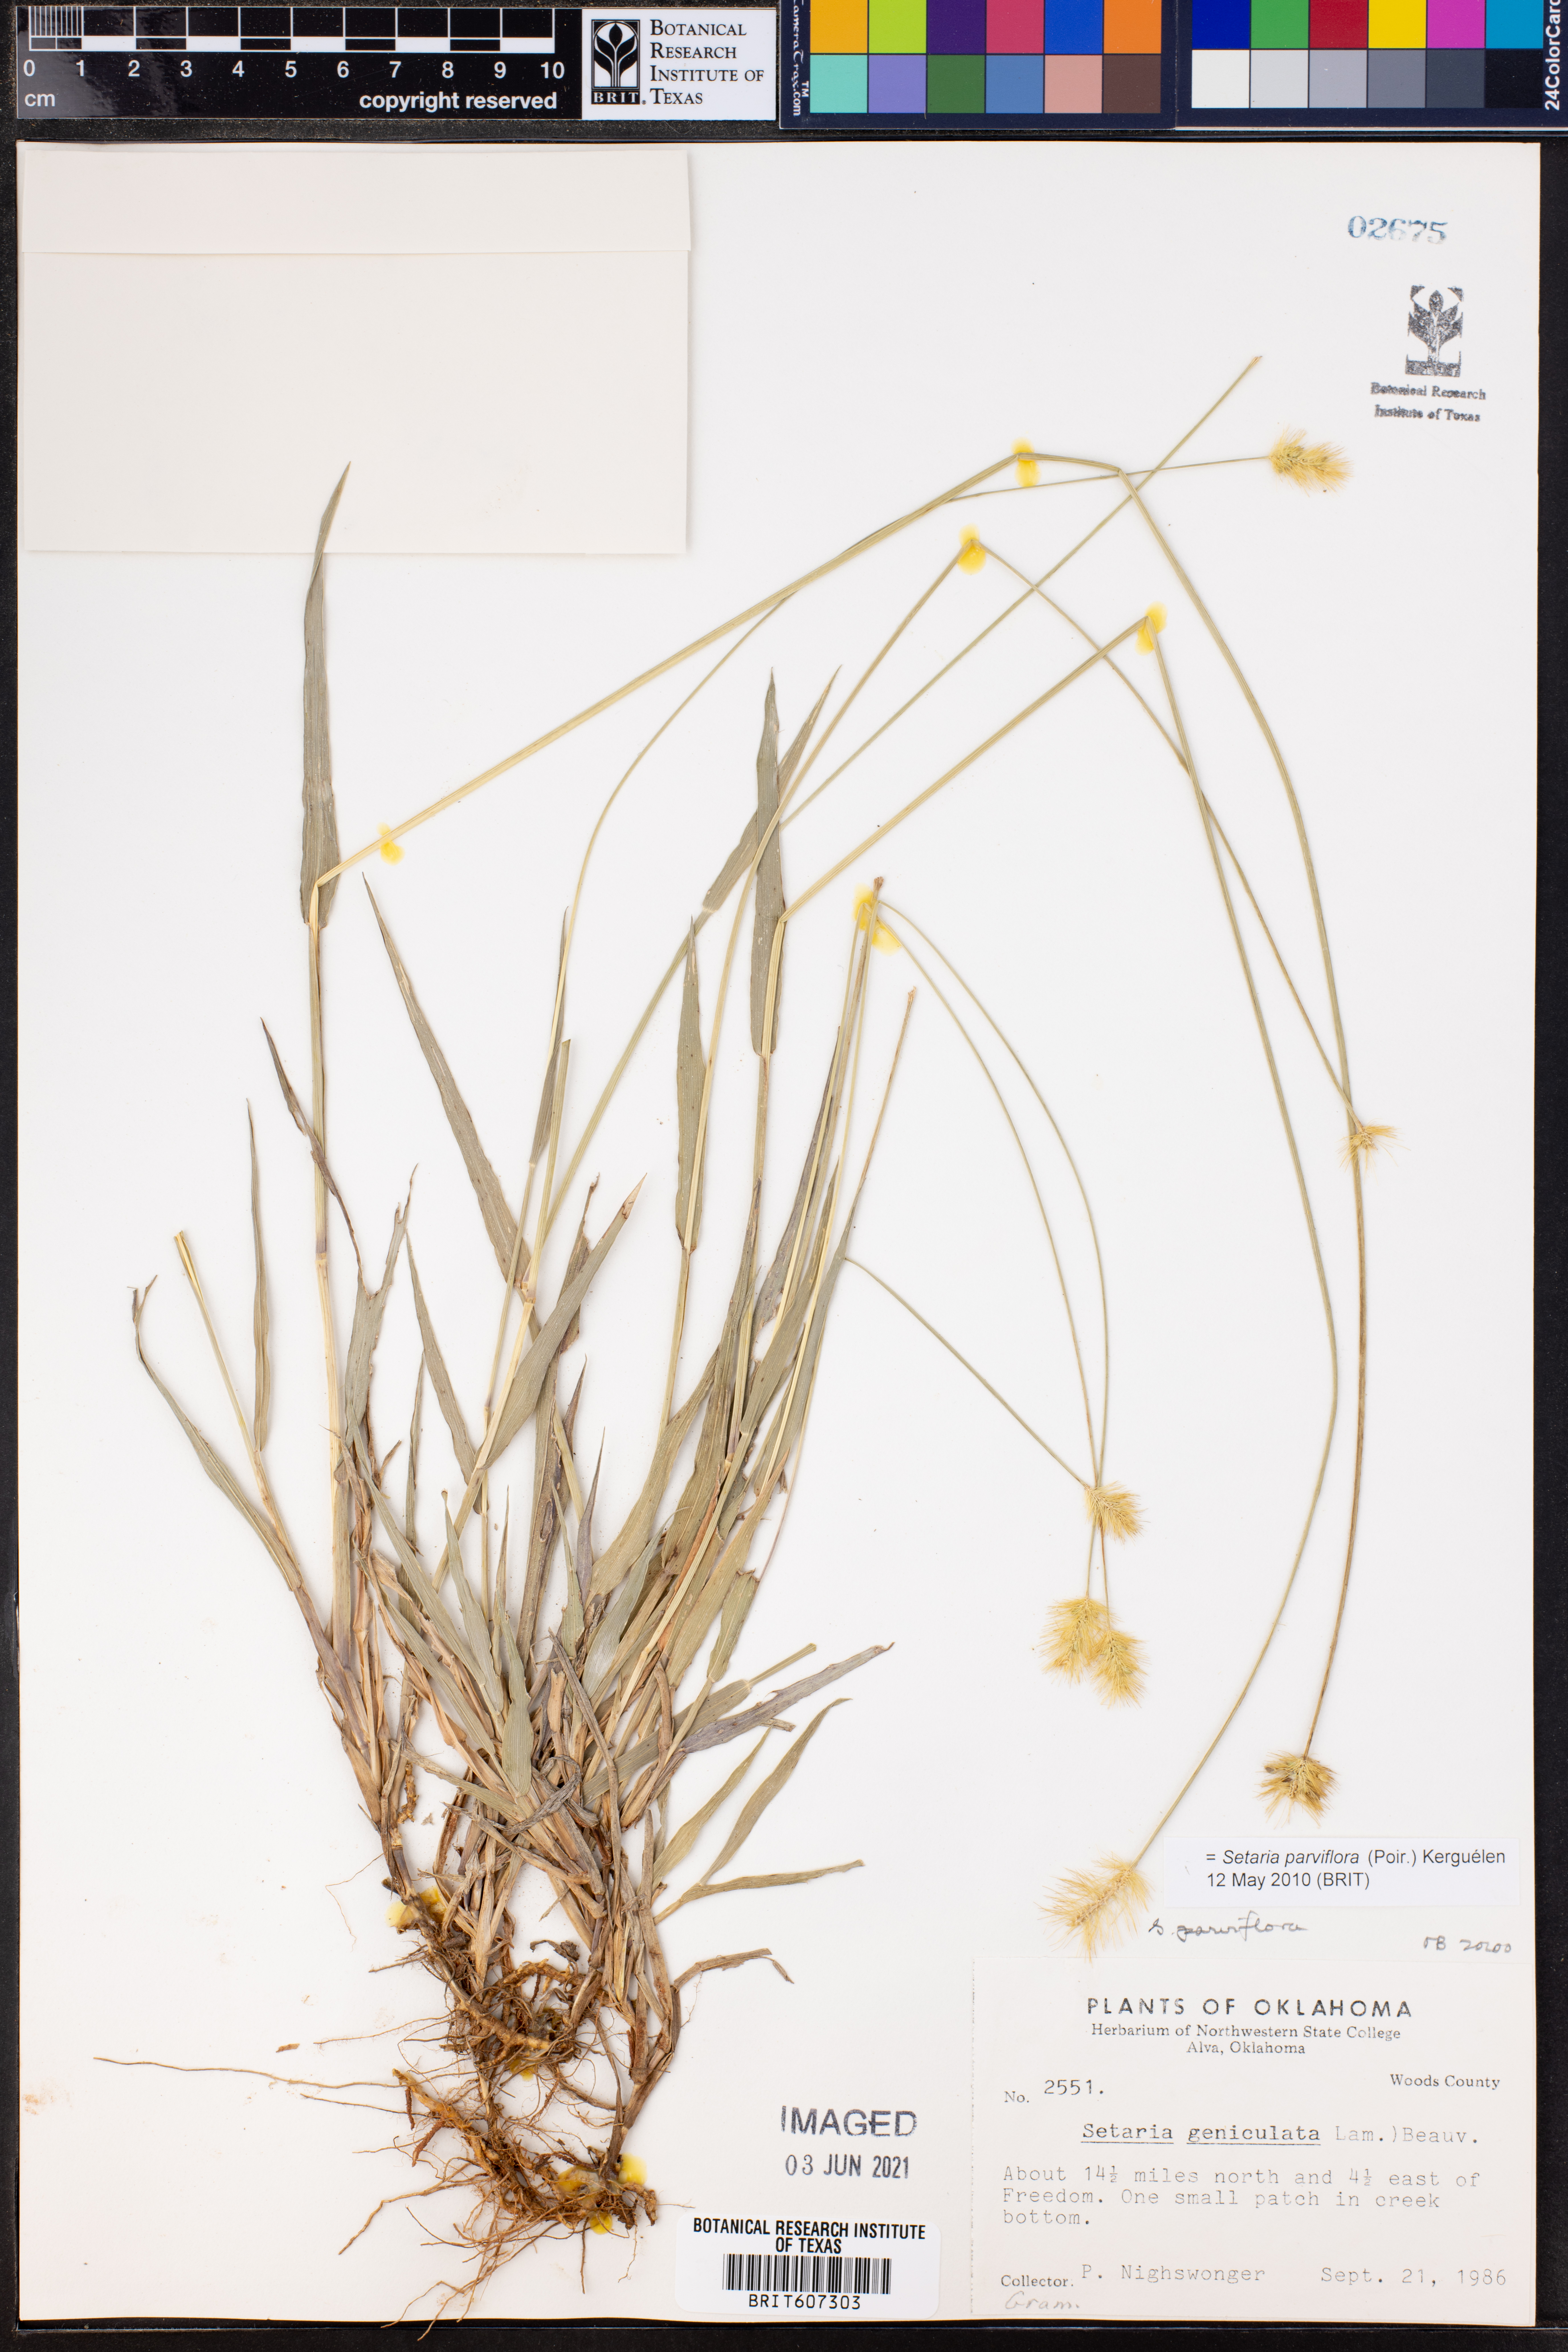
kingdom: Plantae
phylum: Tracheophyta
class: Liliopsida
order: Poales
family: Poaceae
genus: Setaria
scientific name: Setaria parviflora
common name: Knotroot bristle-grass
